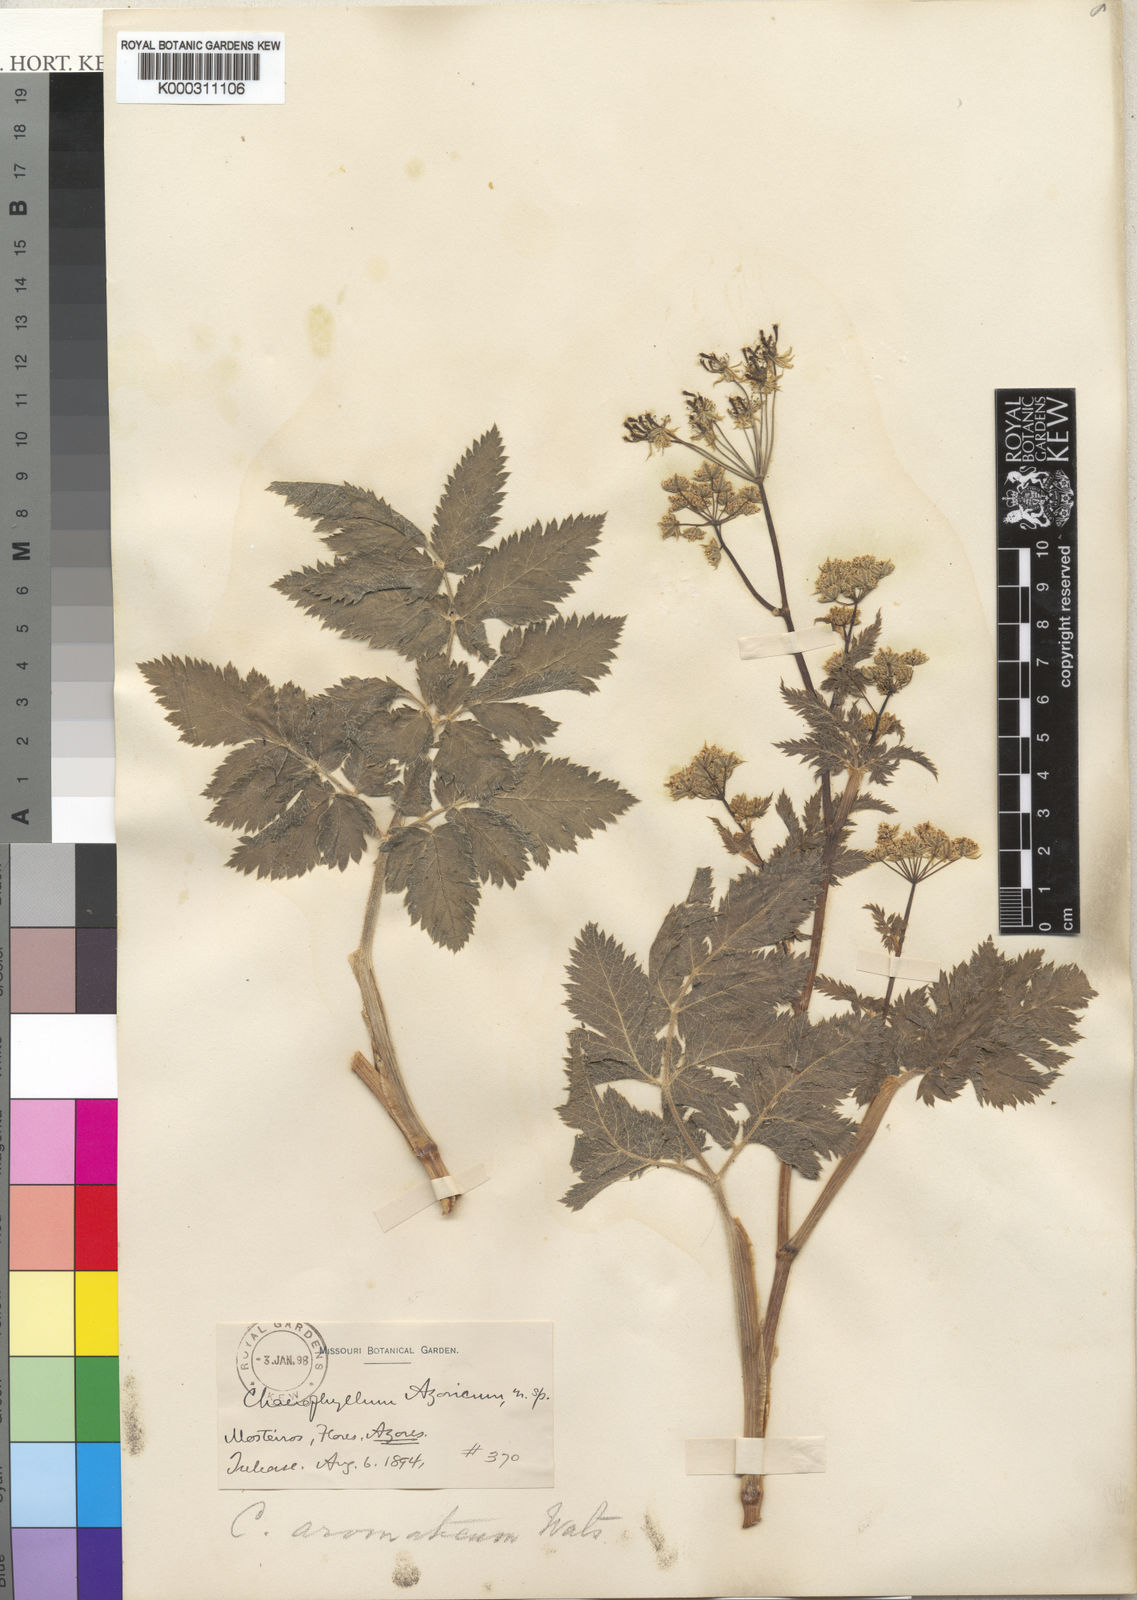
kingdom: Plantae
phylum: Tracheophyta
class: Magnoliopsida
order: Apiales
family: Apiaceae
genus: Chaerophyllum
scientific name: Chaerophyllum azoricum
